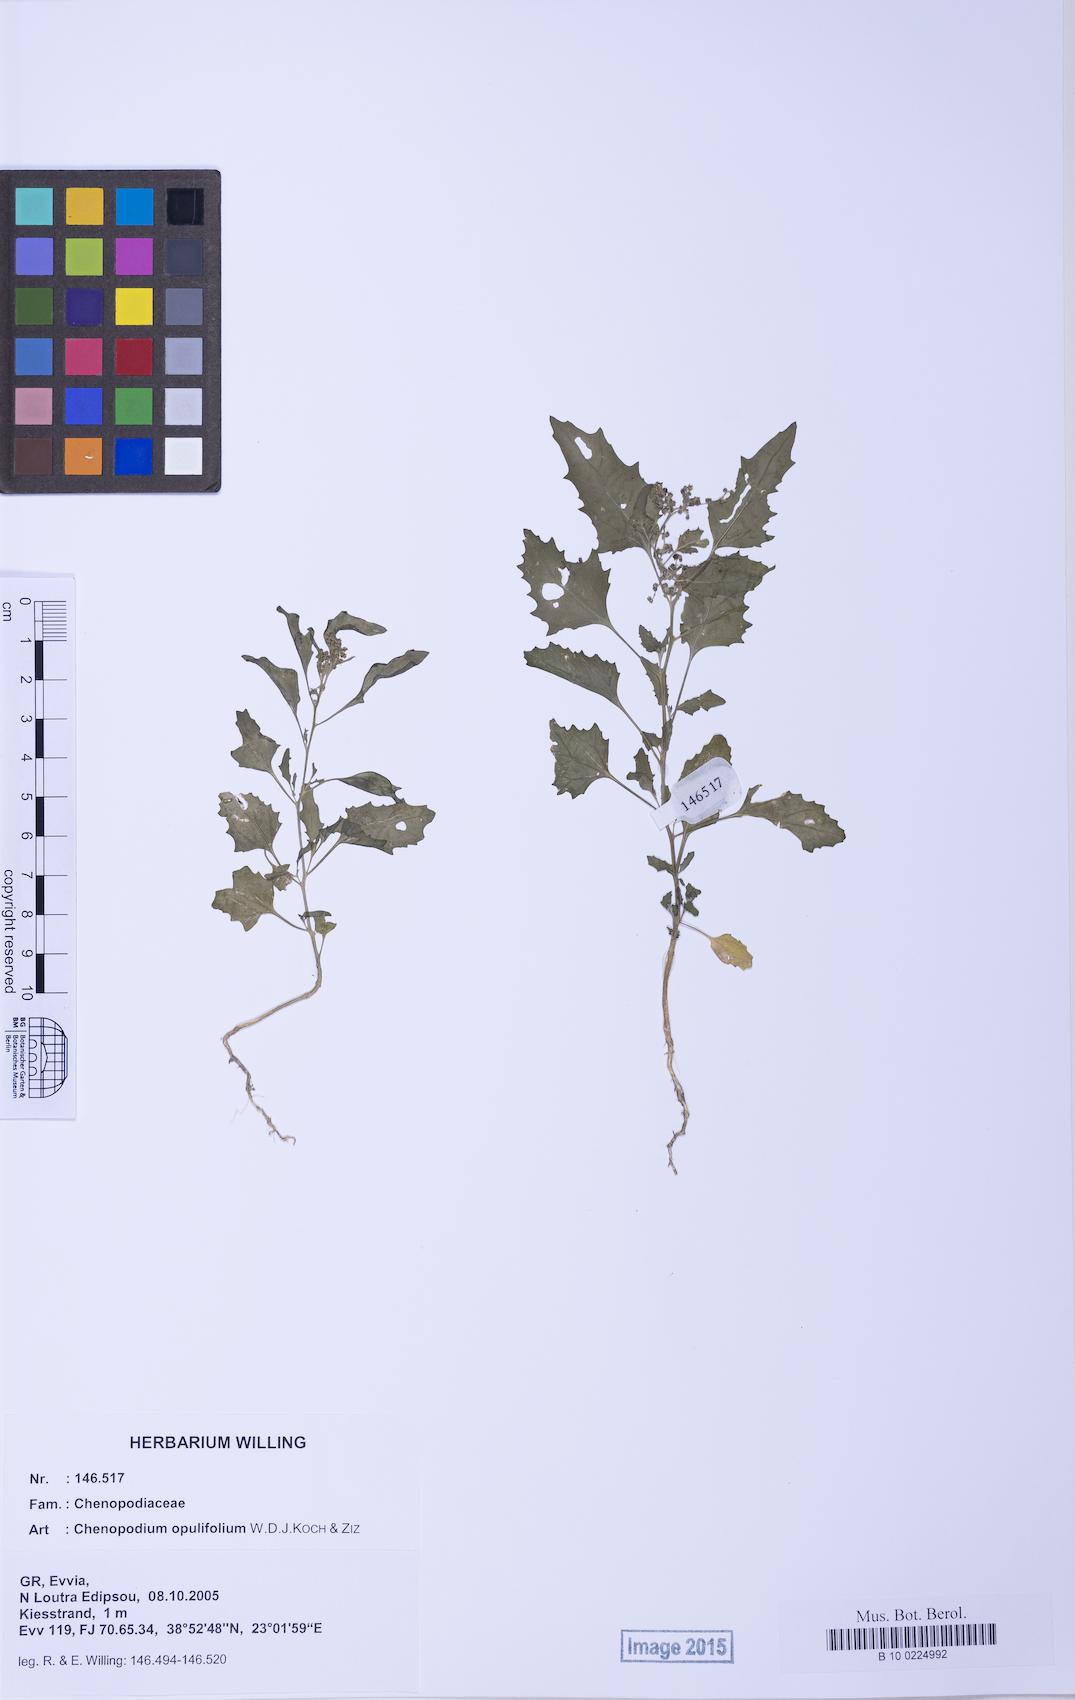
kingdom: Plantae
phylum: Tracheophyta
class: Magnoliopsida
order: Caryophyllales
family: Amaranthaceae
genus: Chenopodiastrum
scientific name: Chenopodiastrum murale
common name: Sowbane
